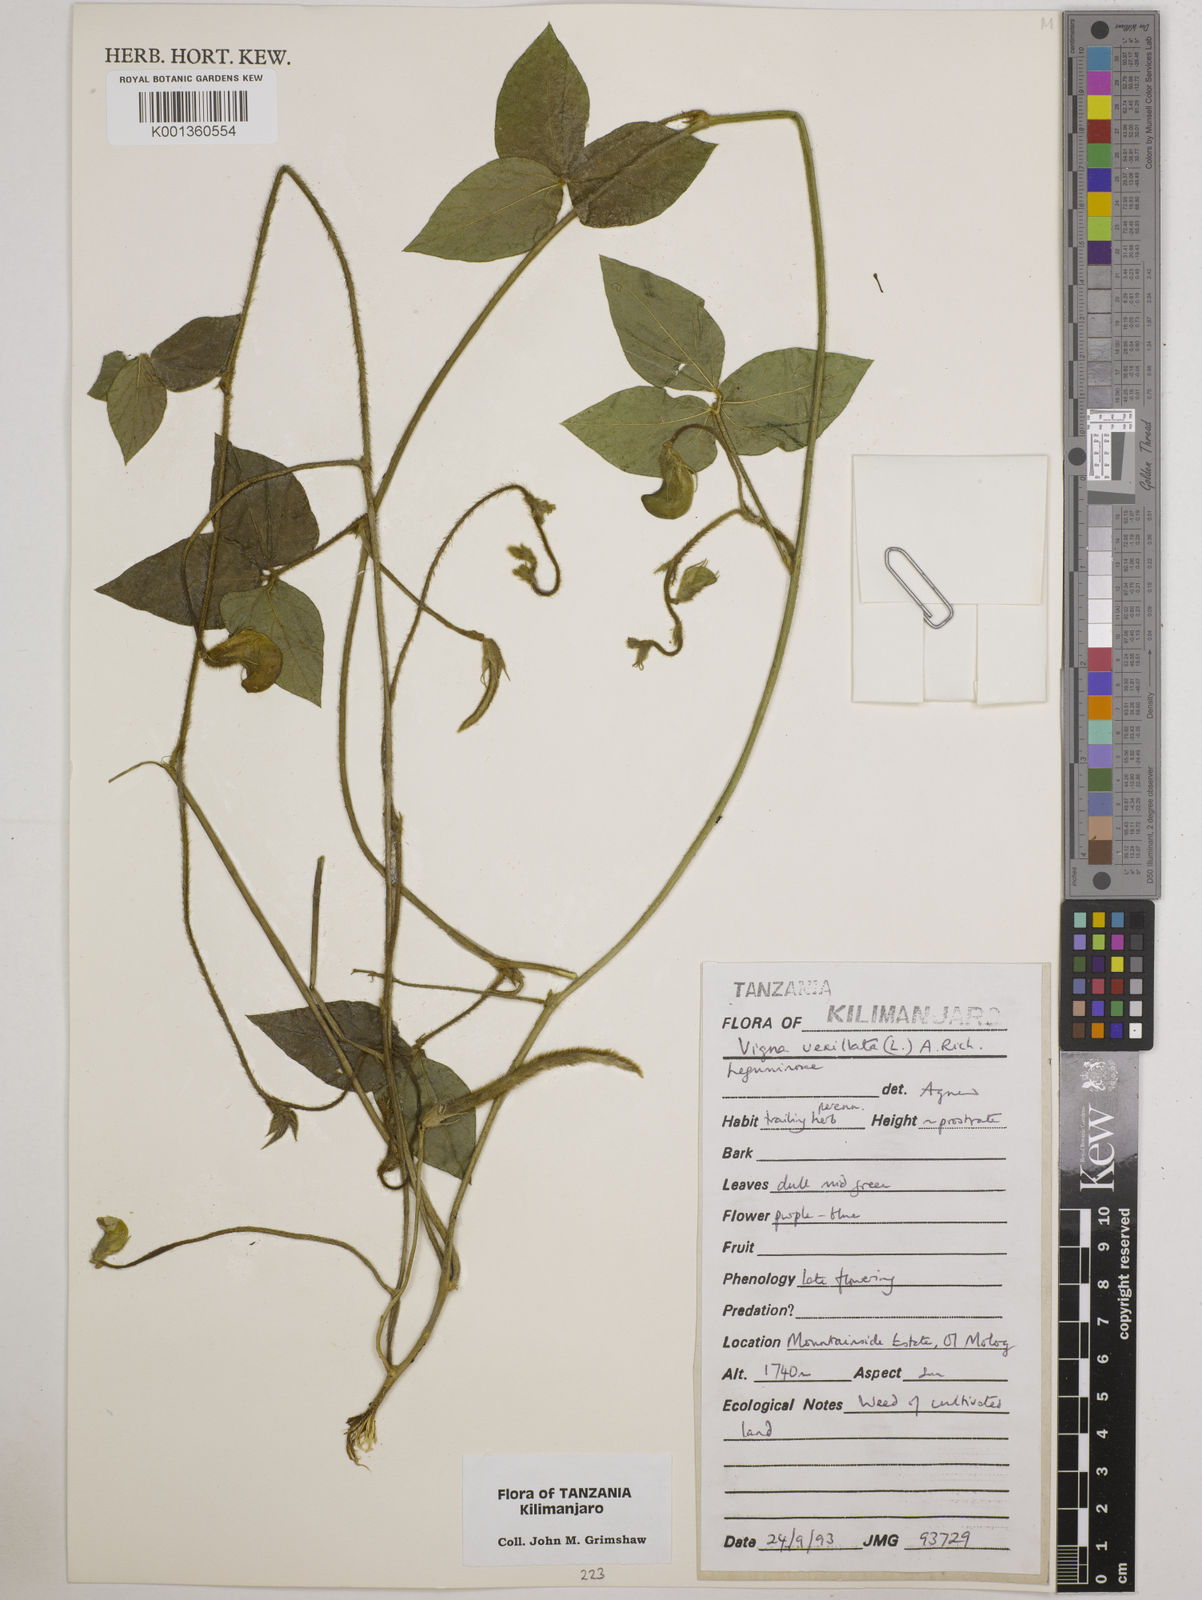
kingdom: Plantae
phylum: Tracheophyta
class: Magnoliopsida
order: Fabales
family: Fabaceae
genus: Vigna
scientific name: Vigna vexillata
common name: Zombi pea
